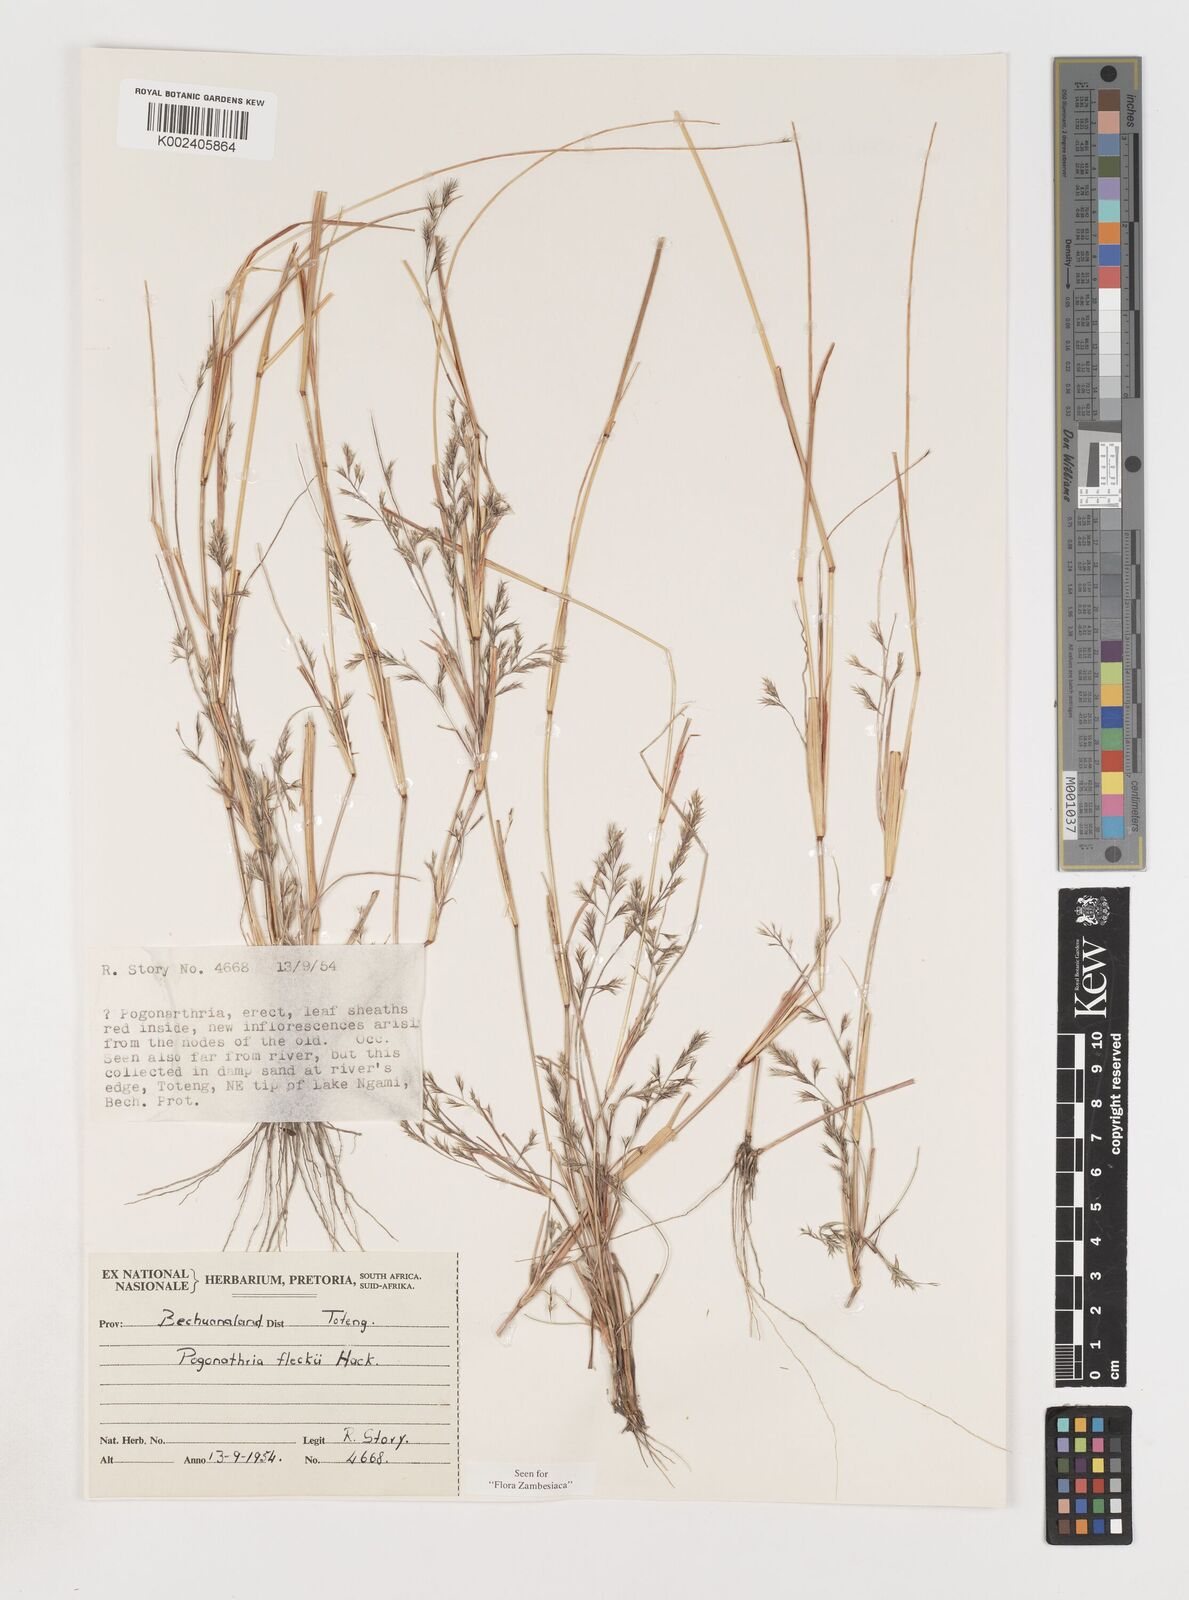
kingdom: Plantae
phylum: Tracheophyta
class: Liliopsida
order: Poales
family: Poaceae
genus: Pogonarthria
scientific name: Pogonarthria fleckii
